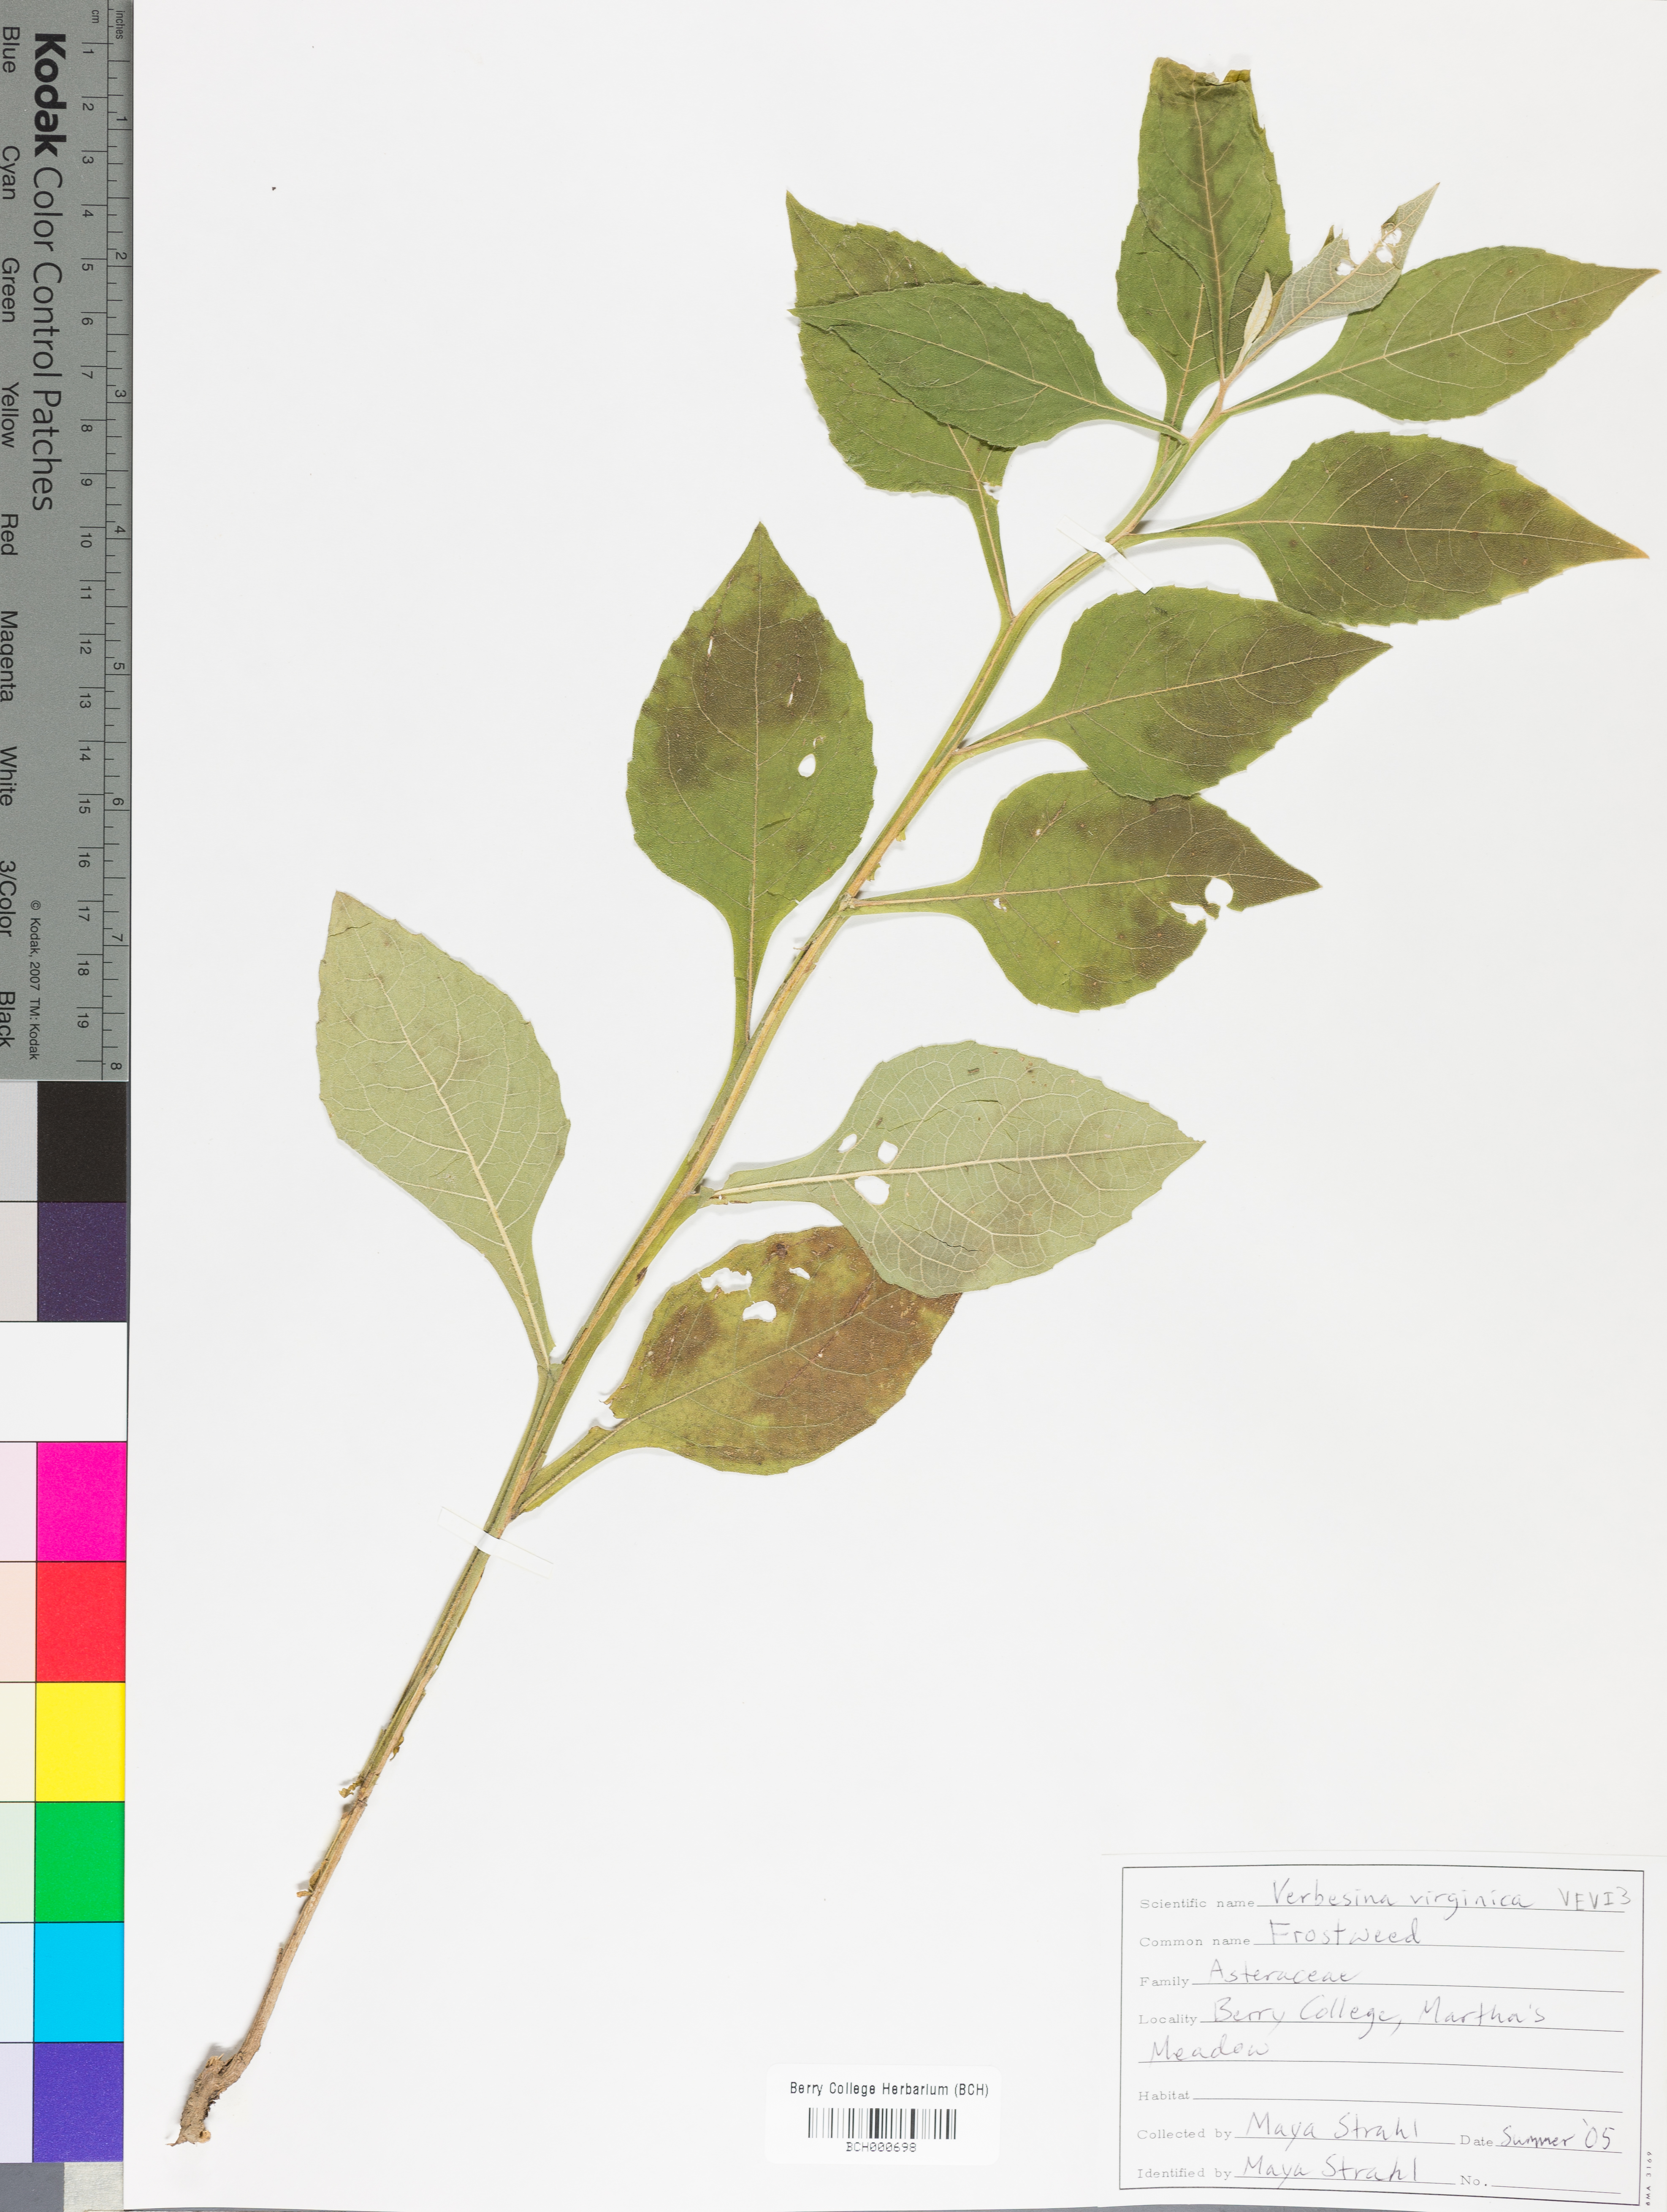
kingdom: Plantae
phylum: Tracheophyta
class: Magnoliopsida
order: Asterales
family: Asteraceae
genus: Verbesina
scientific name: Verbesina virginica
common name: Frostweed
